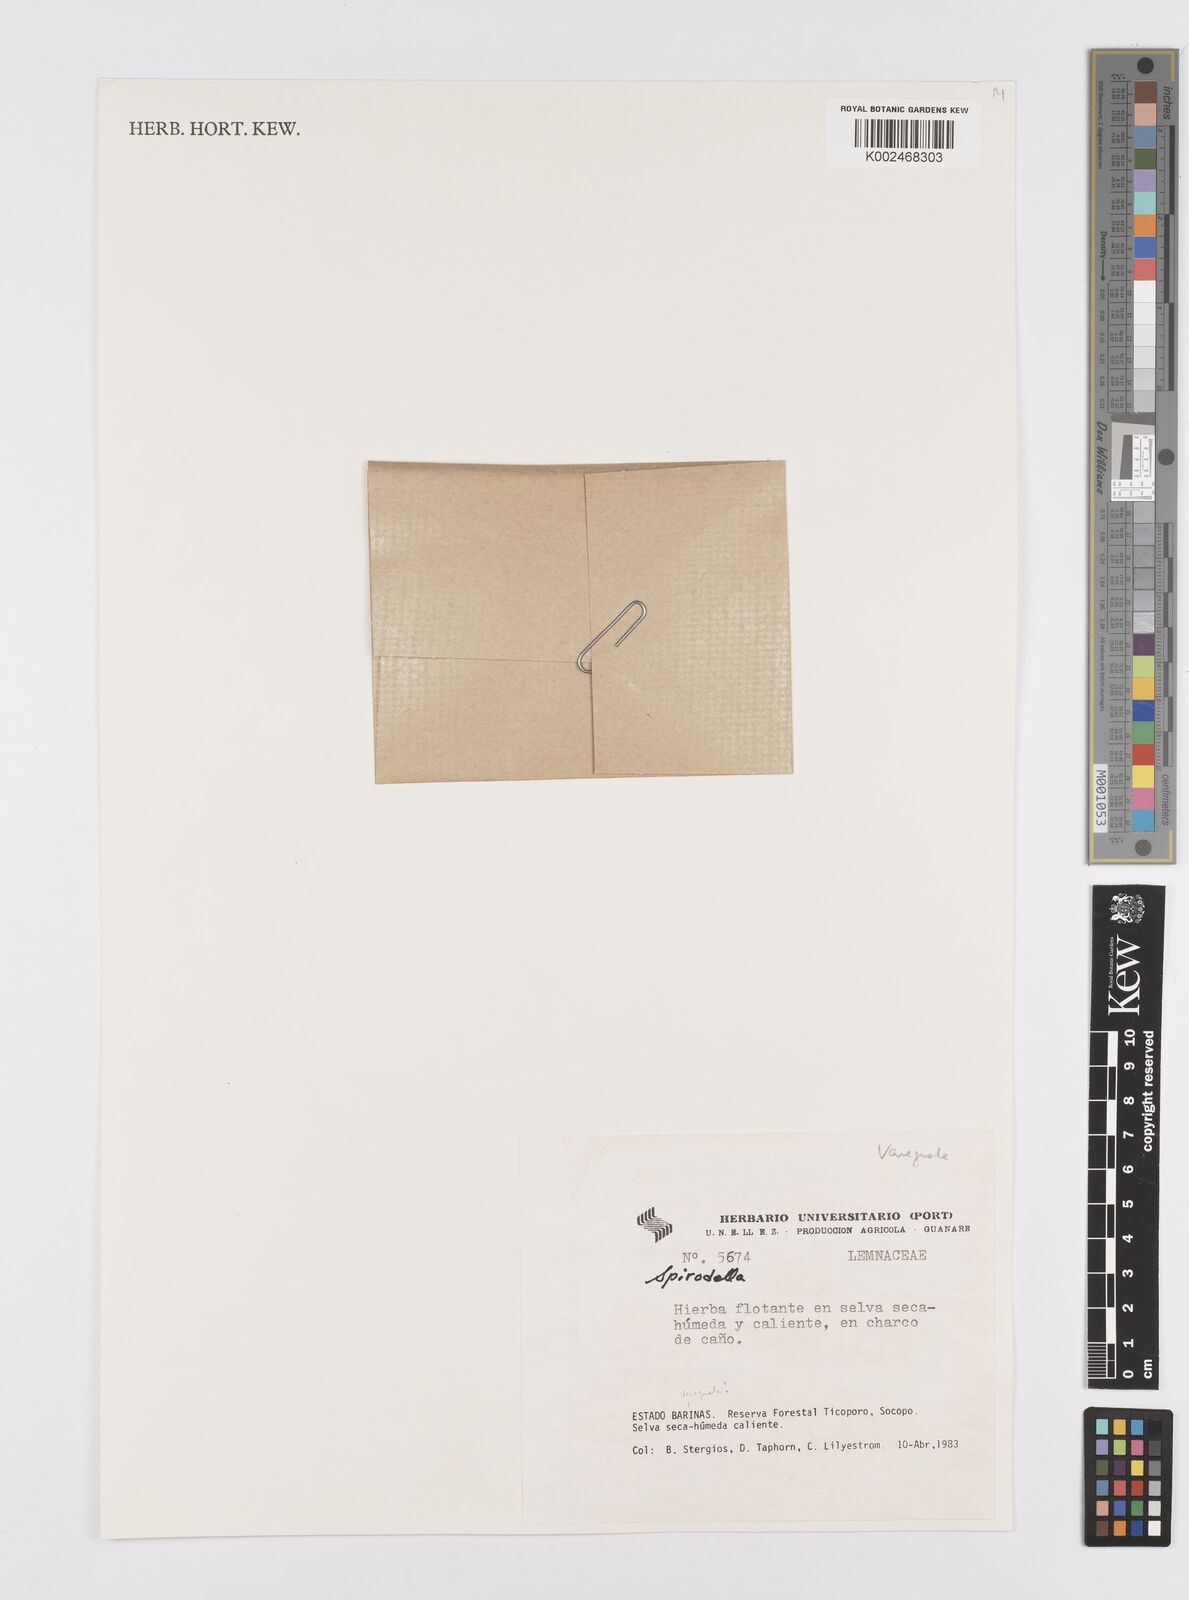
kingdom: Plantae
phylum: Tracheophyta
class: Liliopsida
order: Alismatales
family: Araceae
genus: Lemna
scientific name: Lemna
